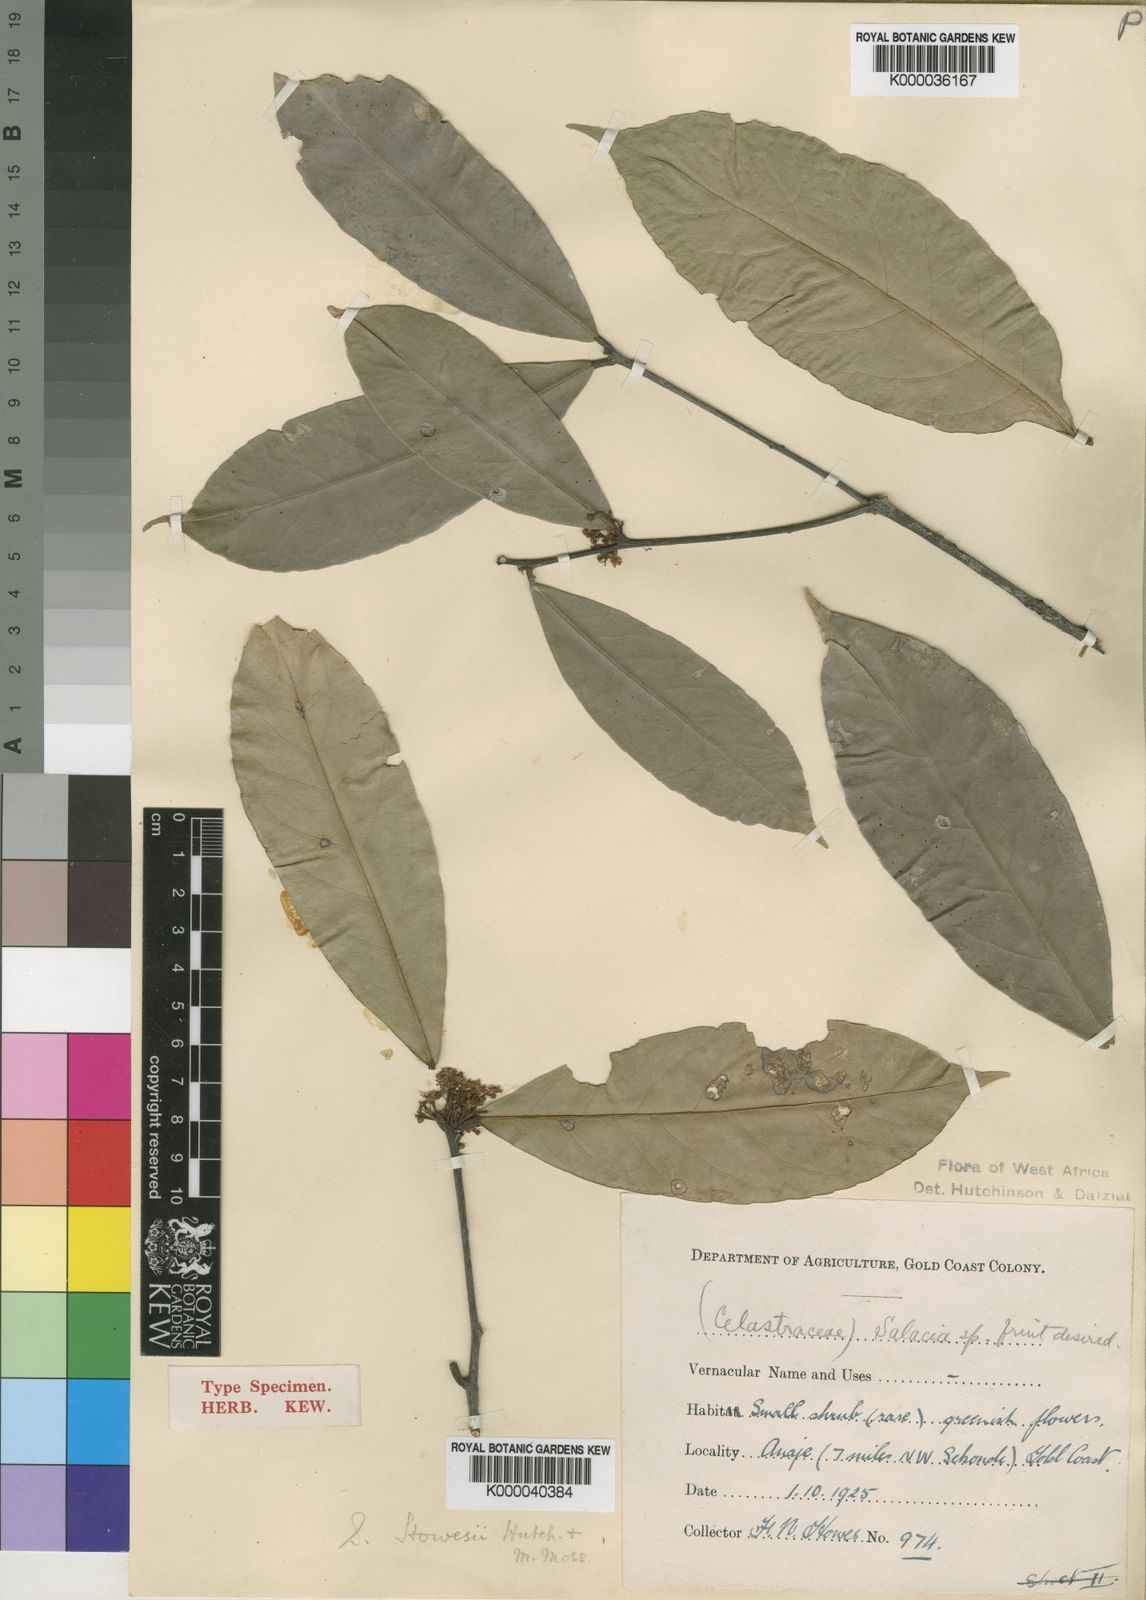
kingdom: Plantae
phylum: Tracheophyta
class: Magnoliopsida
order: Celastrales
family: Celastraceae
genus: Salacia
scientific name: Salacia howesii
